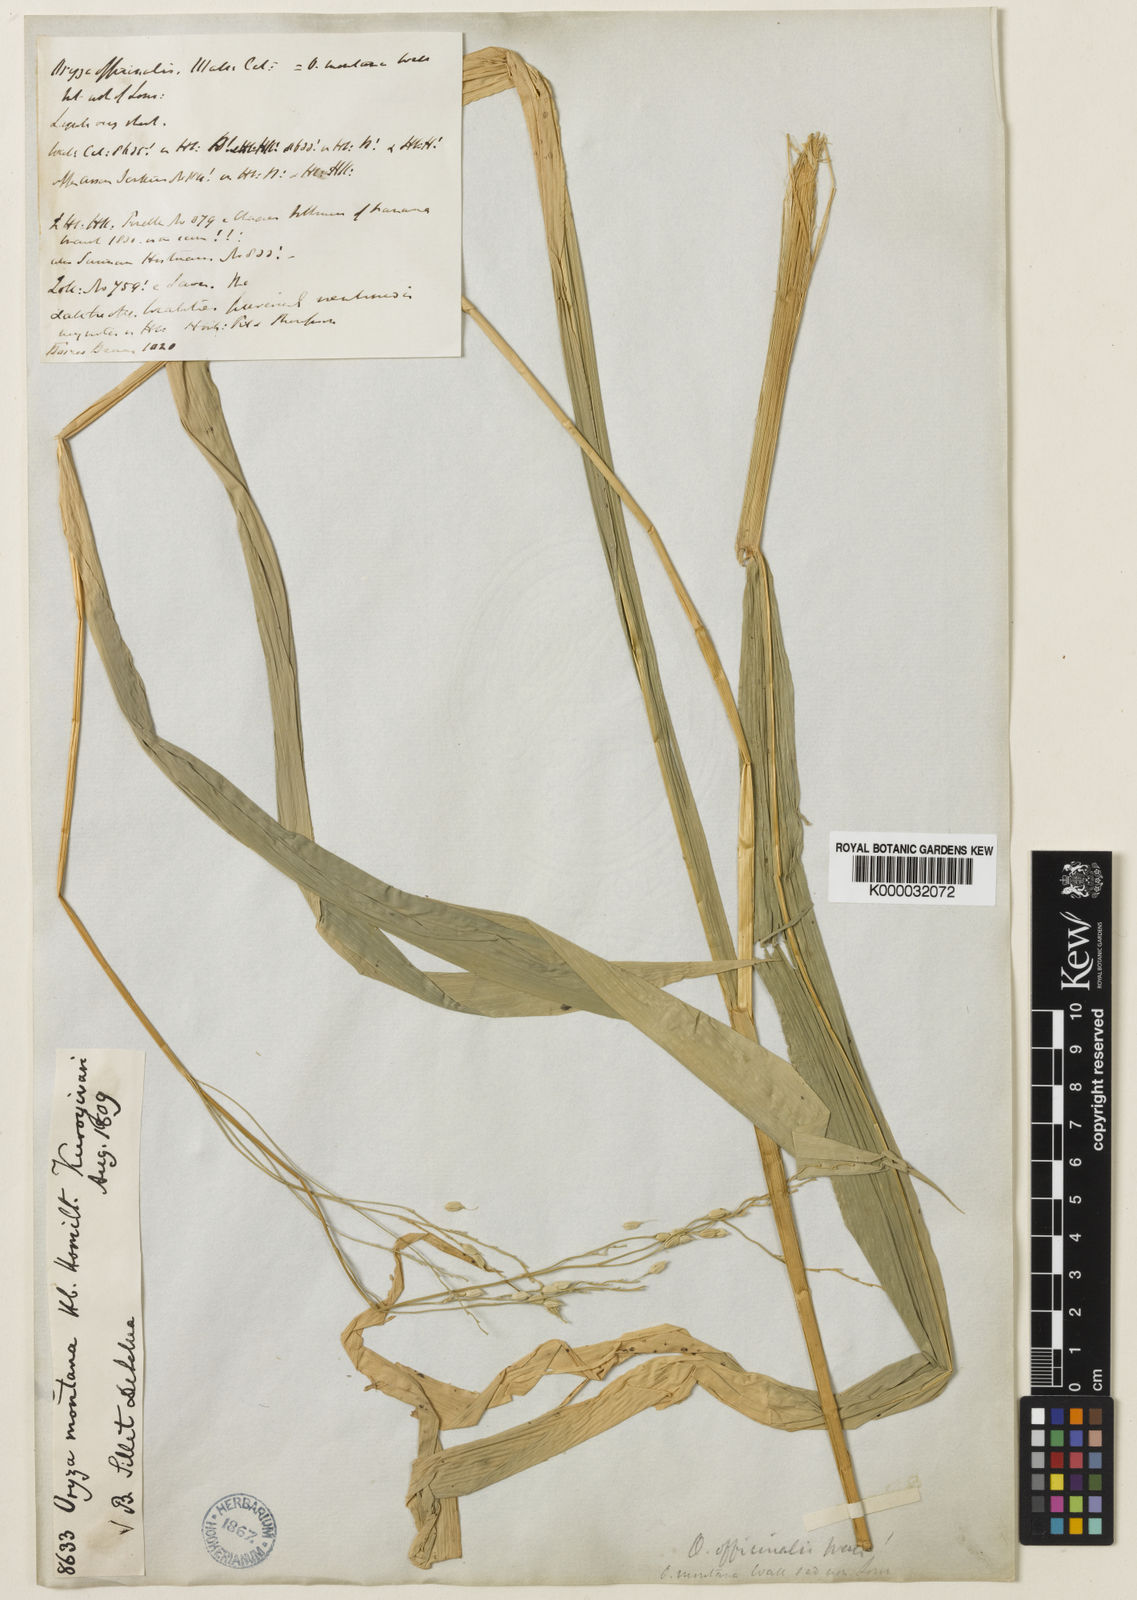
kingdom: Plantae
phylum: Tracheophyta
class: Liliopsida
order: Poales
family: Poaceae
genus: Oryza
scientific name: Oryza
